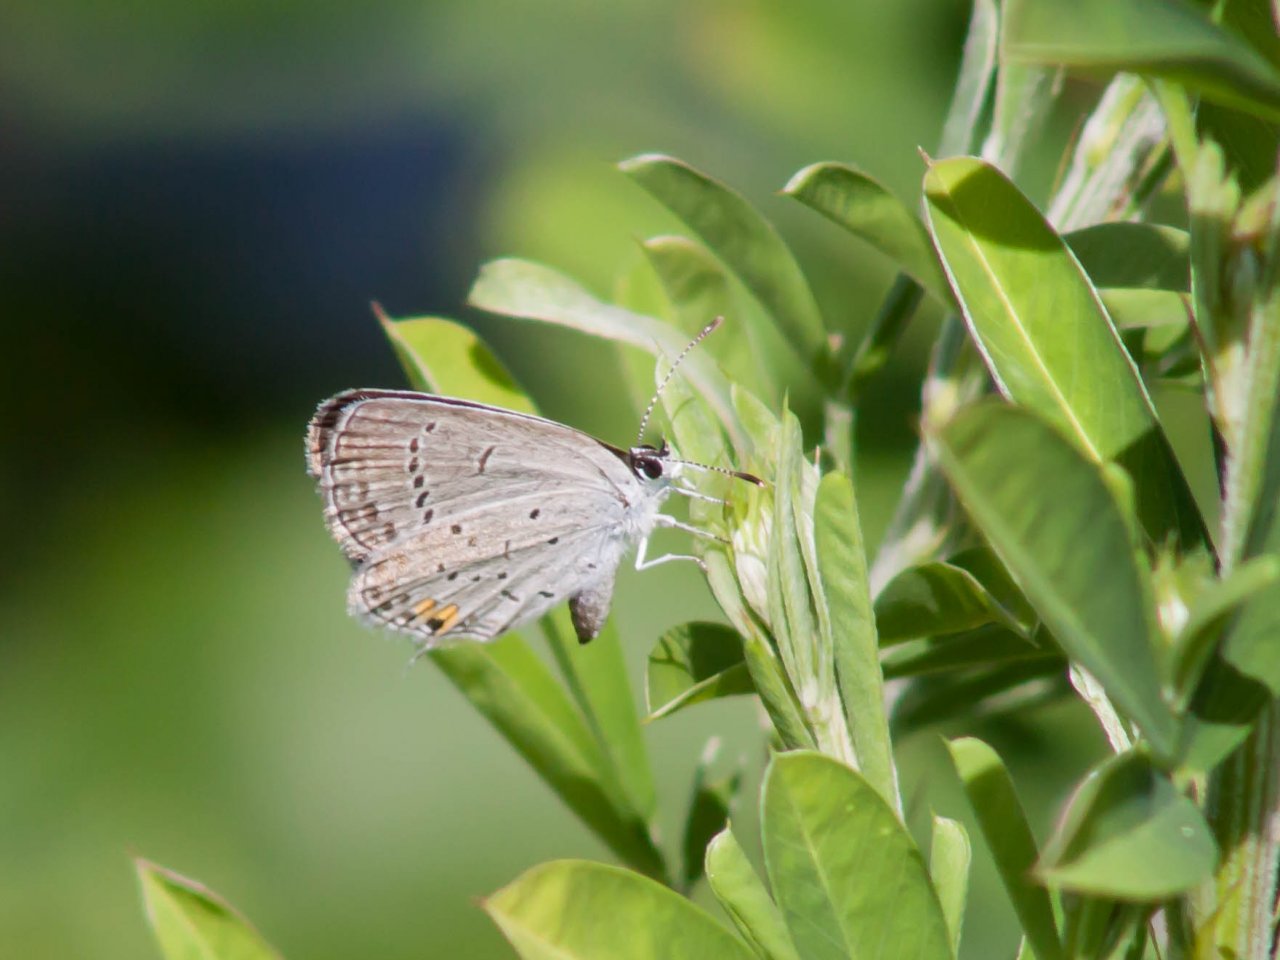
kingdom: Animalia
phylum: Arthropoda
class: Insecta
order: Lepidoptera
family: Lycaenidae
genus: Elkalyce
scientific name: Elkalyce comyntas
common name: Eastern Tailed-Blue
